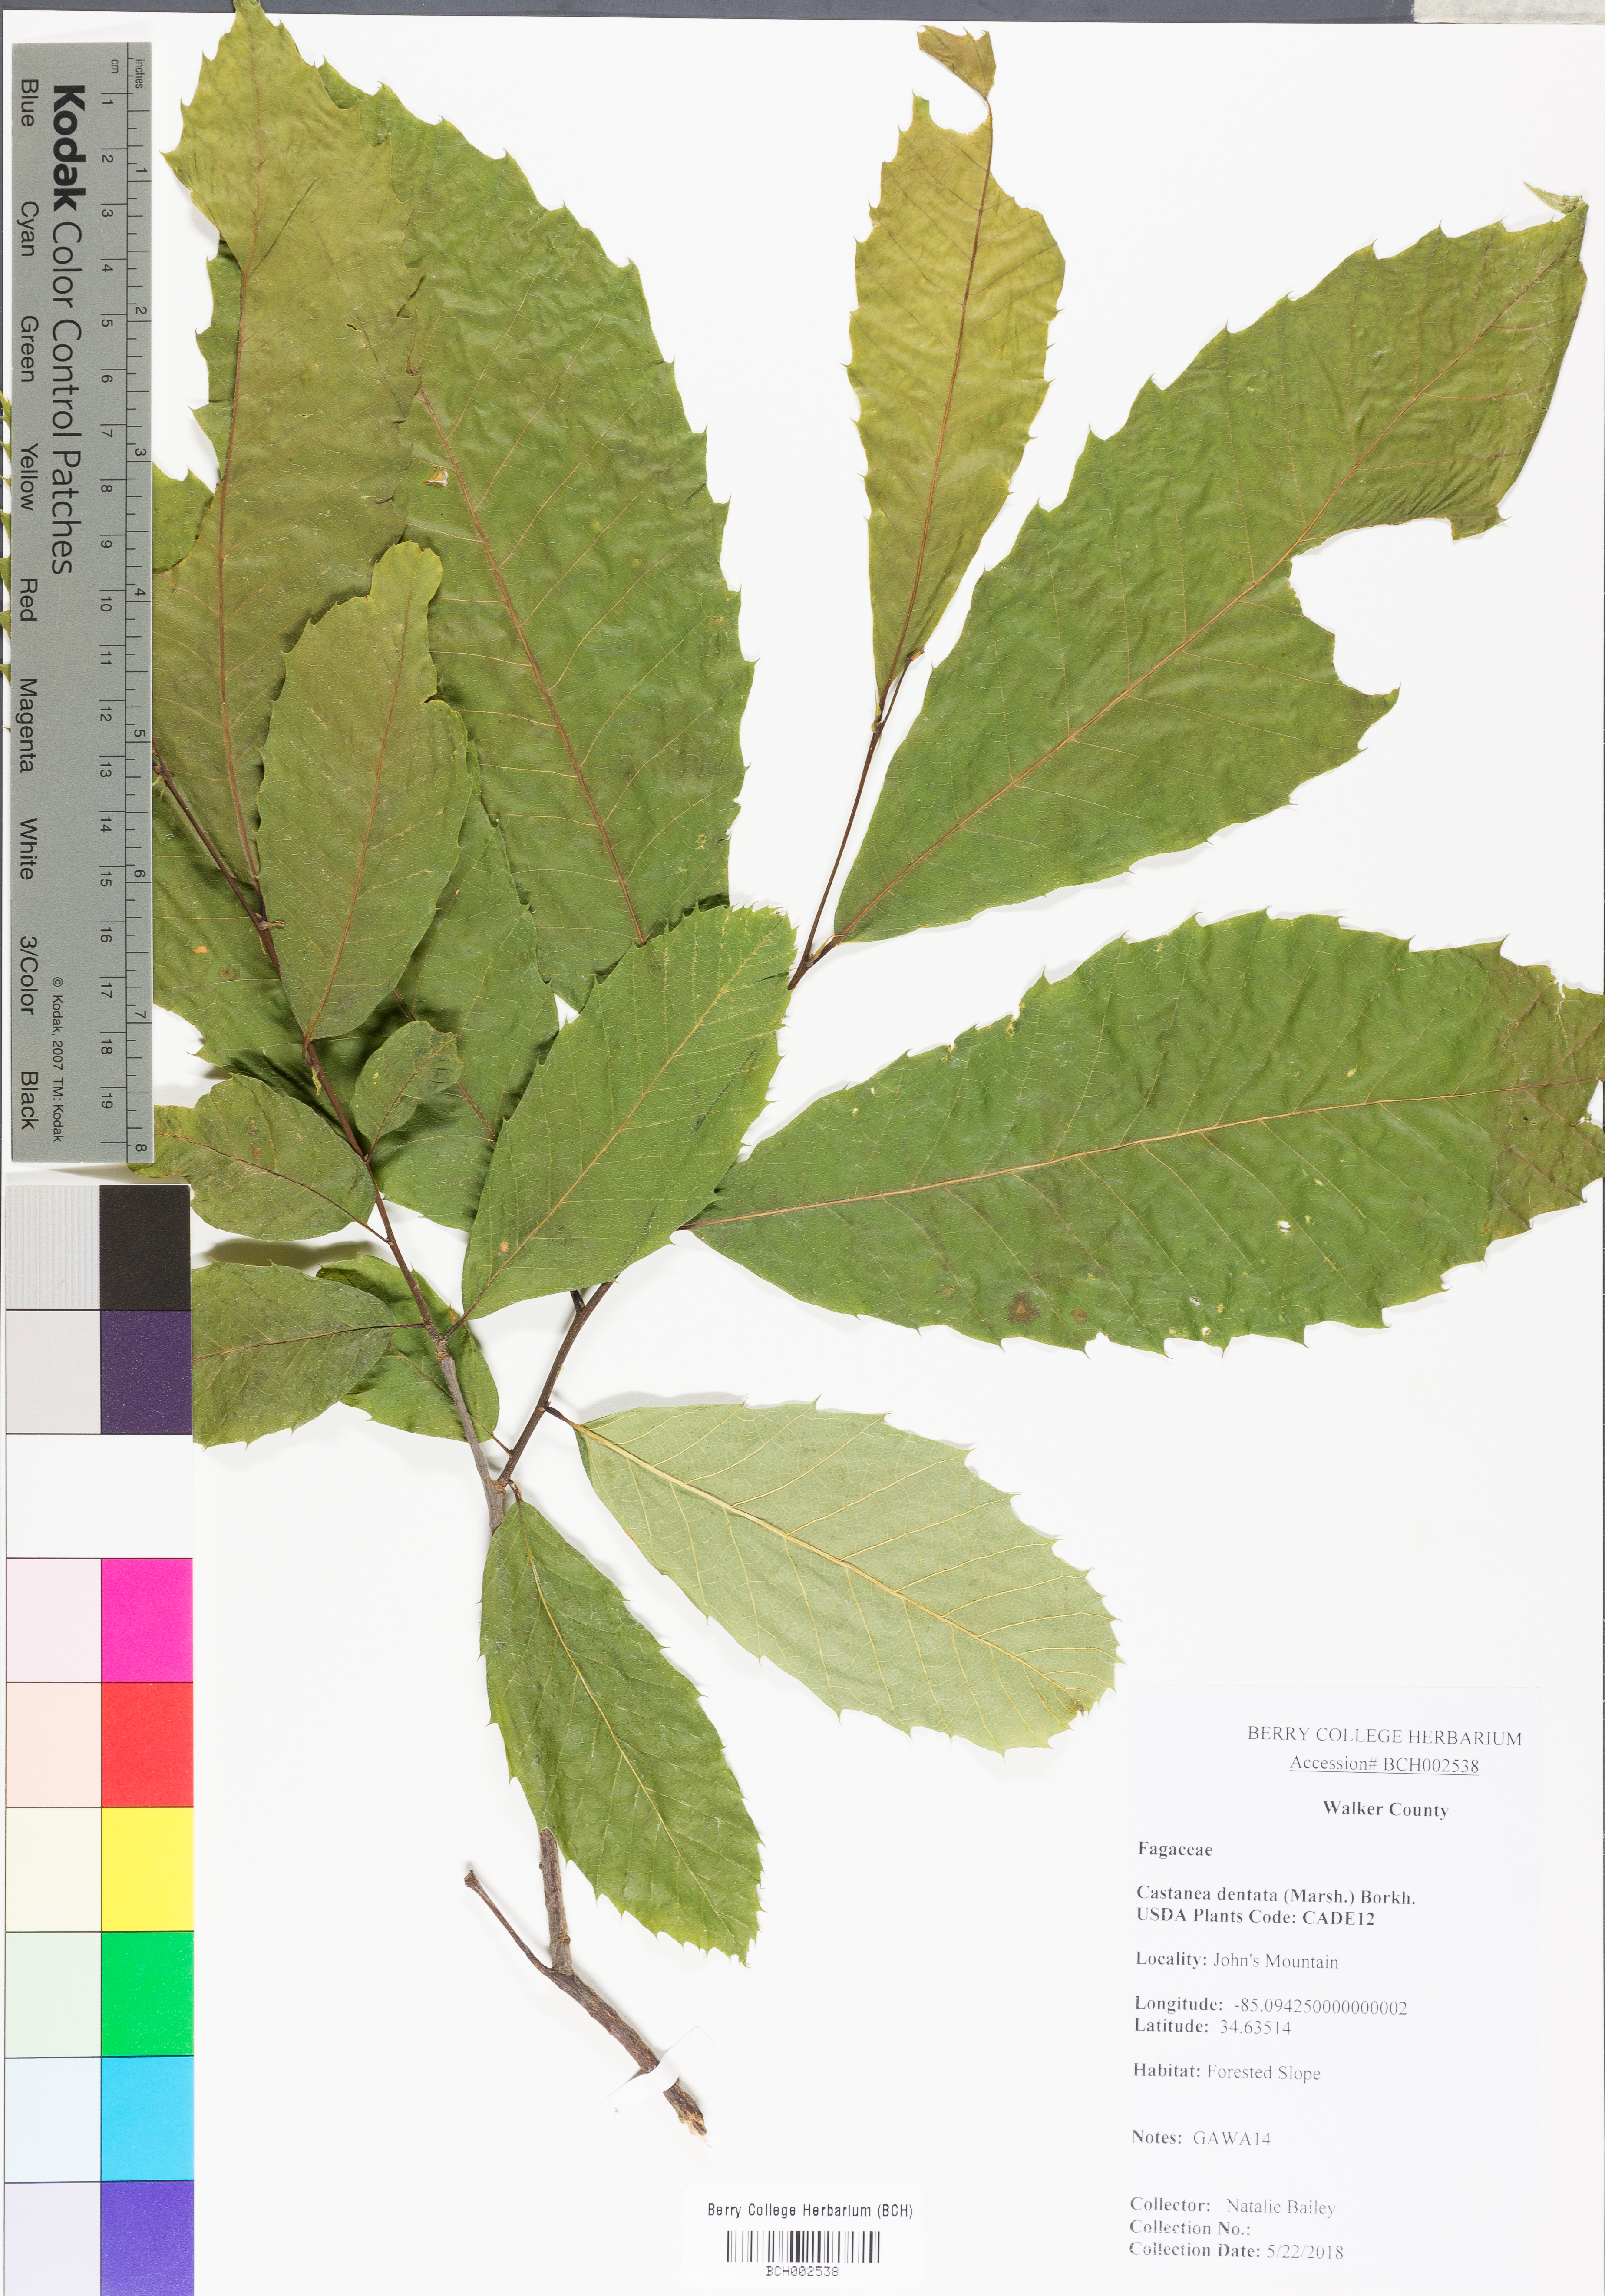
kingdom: Plantae
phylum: Tracheophyta
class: Magnoliopsida
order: Fagales
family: Fagaceae
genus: Castanea
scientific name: Castanea dentata
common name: American chestnut
